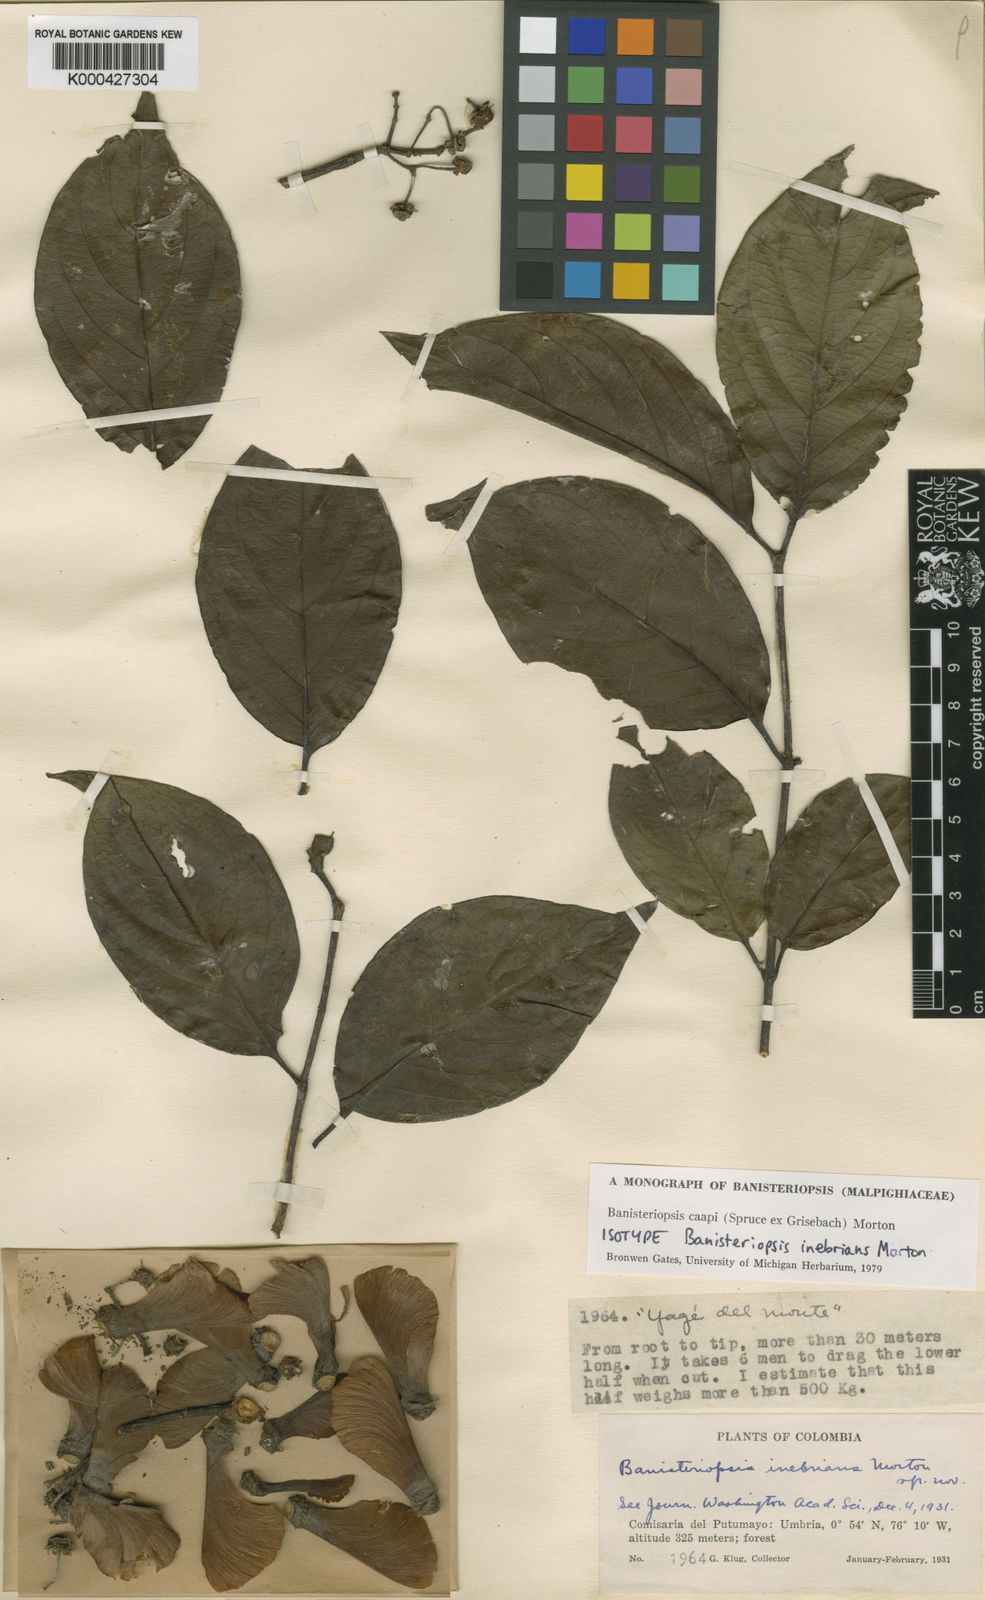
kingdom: Plantae
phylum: Tracheophyta
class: Magnoliopsida
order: Malpighiales
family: Malpighiaceae
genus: Banisteriopsis
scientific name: Banisteriopsis caapi
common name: Soulvine
